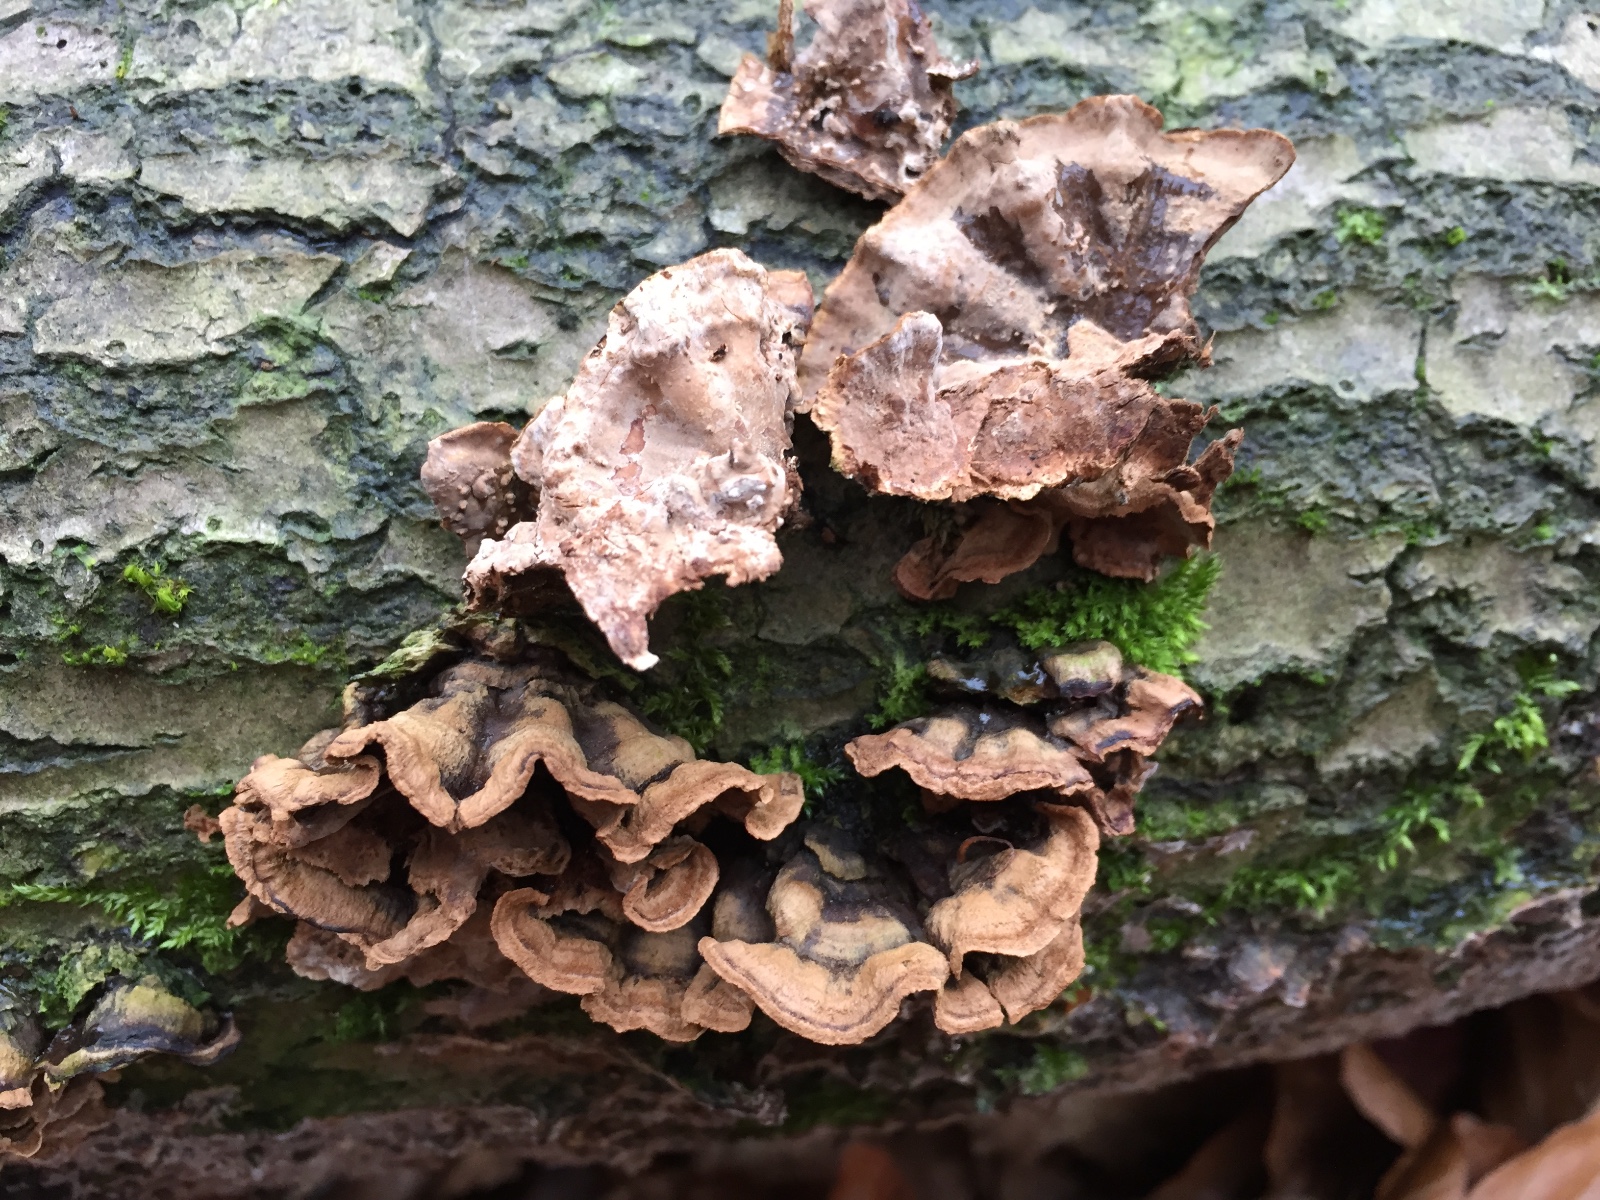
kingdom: Fungi
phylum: Basidiomycota
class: Agaricomycetes
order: Russulales
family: Hericiaceae
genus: Laxitextum
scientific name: Laxitextum bicolor
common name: tvefarvet filtskind
